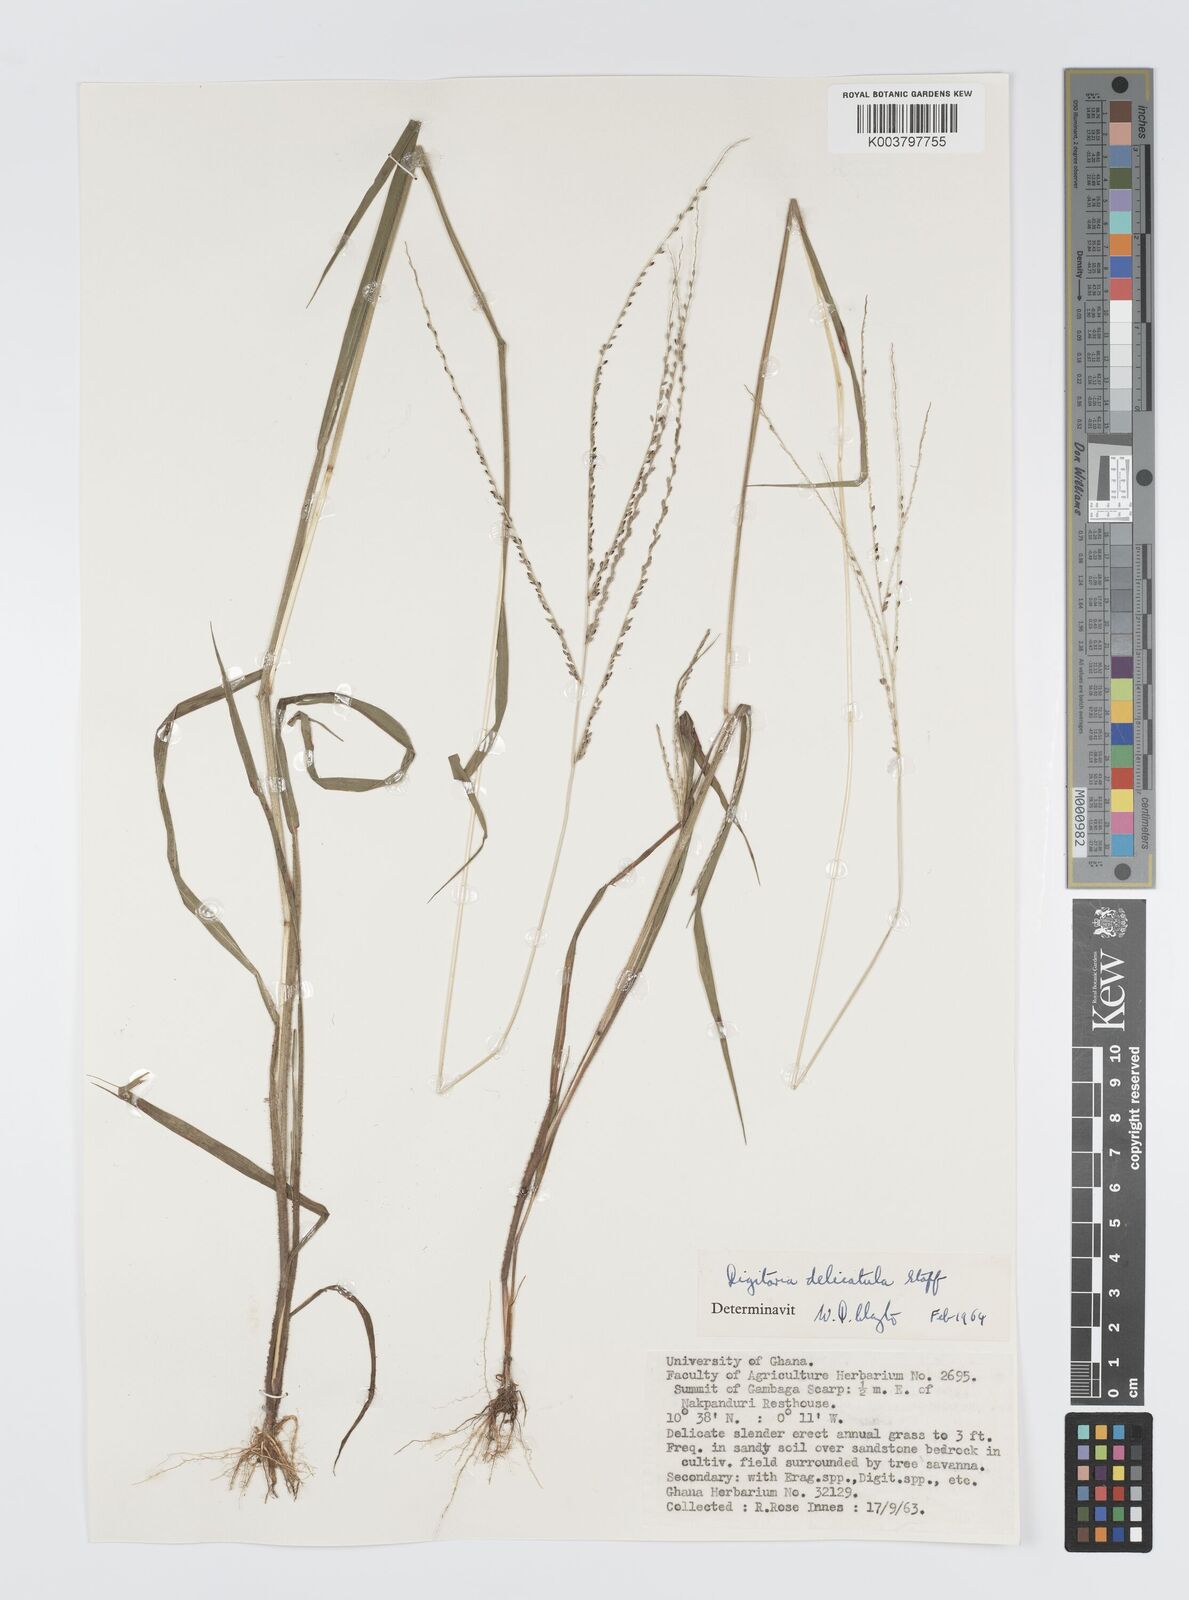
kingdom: Plantae
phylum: Tracheophyta
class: Liliopsida
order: Poales
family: Poaceae
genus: Digitaria
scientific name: Digitaria delicatula
